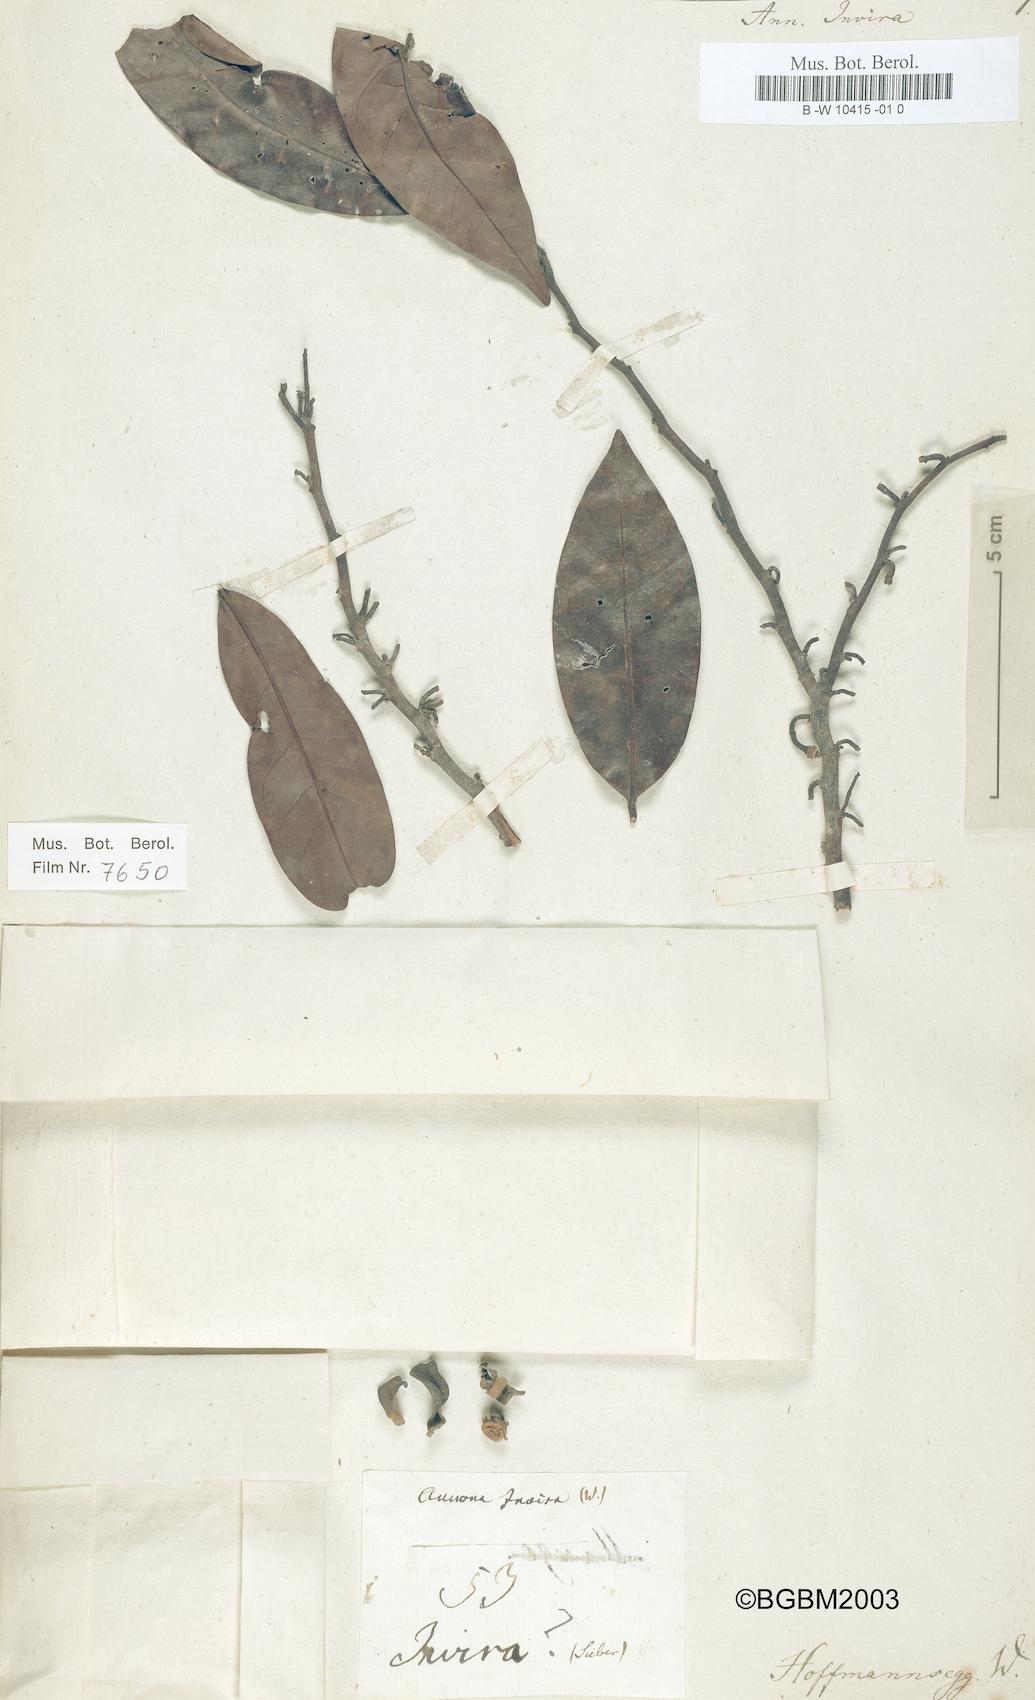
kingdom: Plantae
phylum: Tracheophyta
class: Magnoliopsida
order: Magnoliales
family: Annonaceae
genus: Annona
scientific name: Annona
